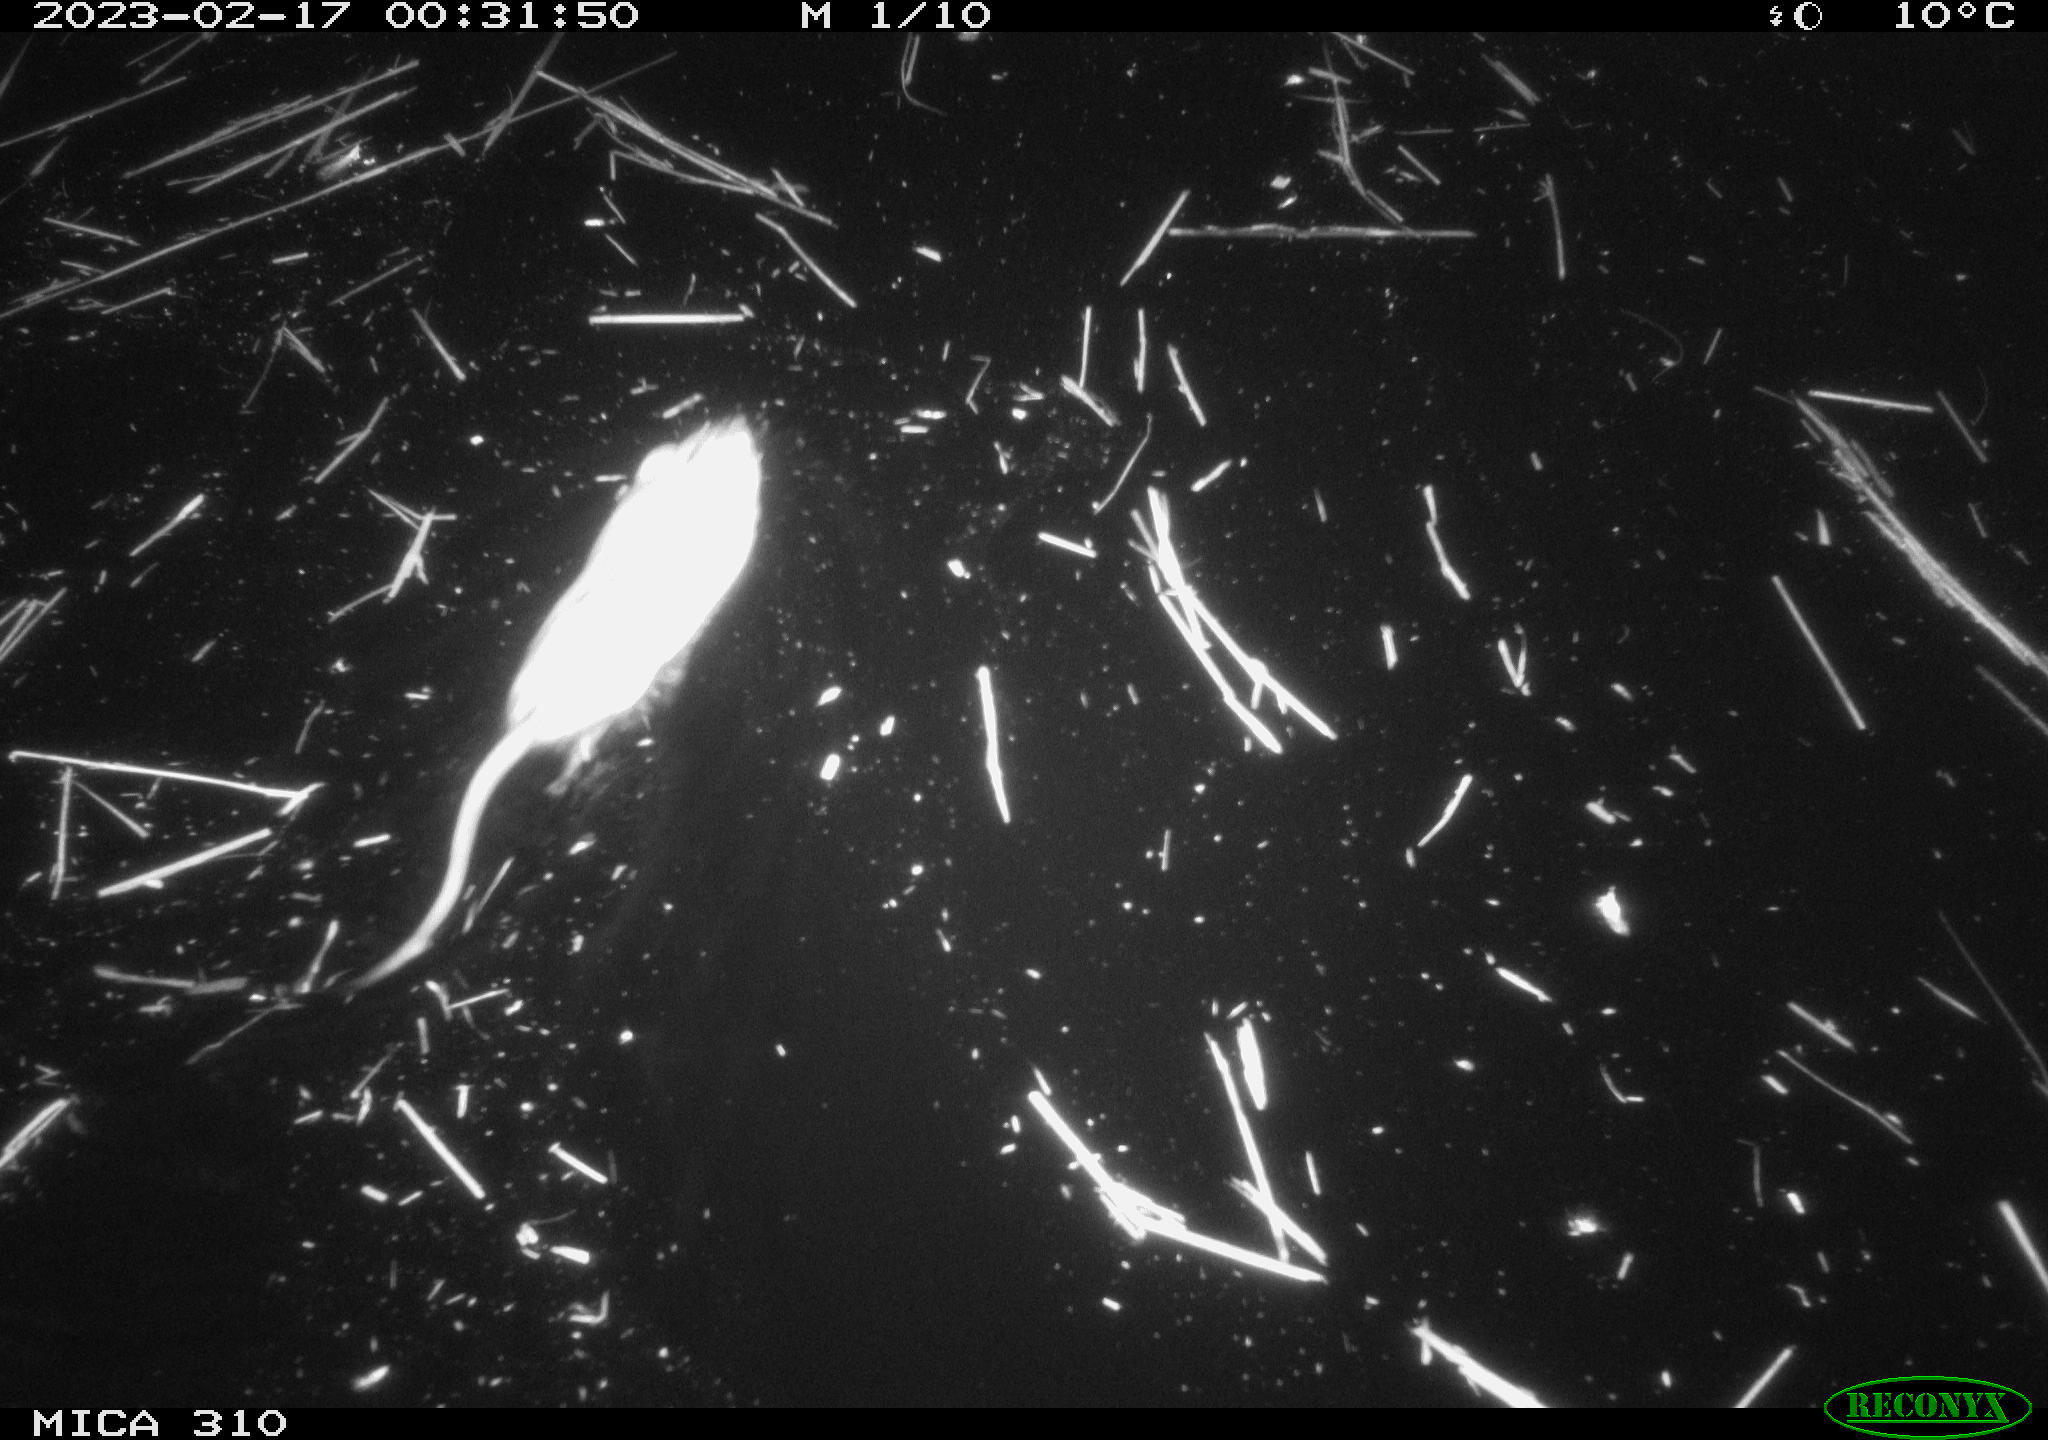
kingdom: Animalia
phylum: Chordata
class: Mammalia
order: Rodentia
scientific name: Rodentia
